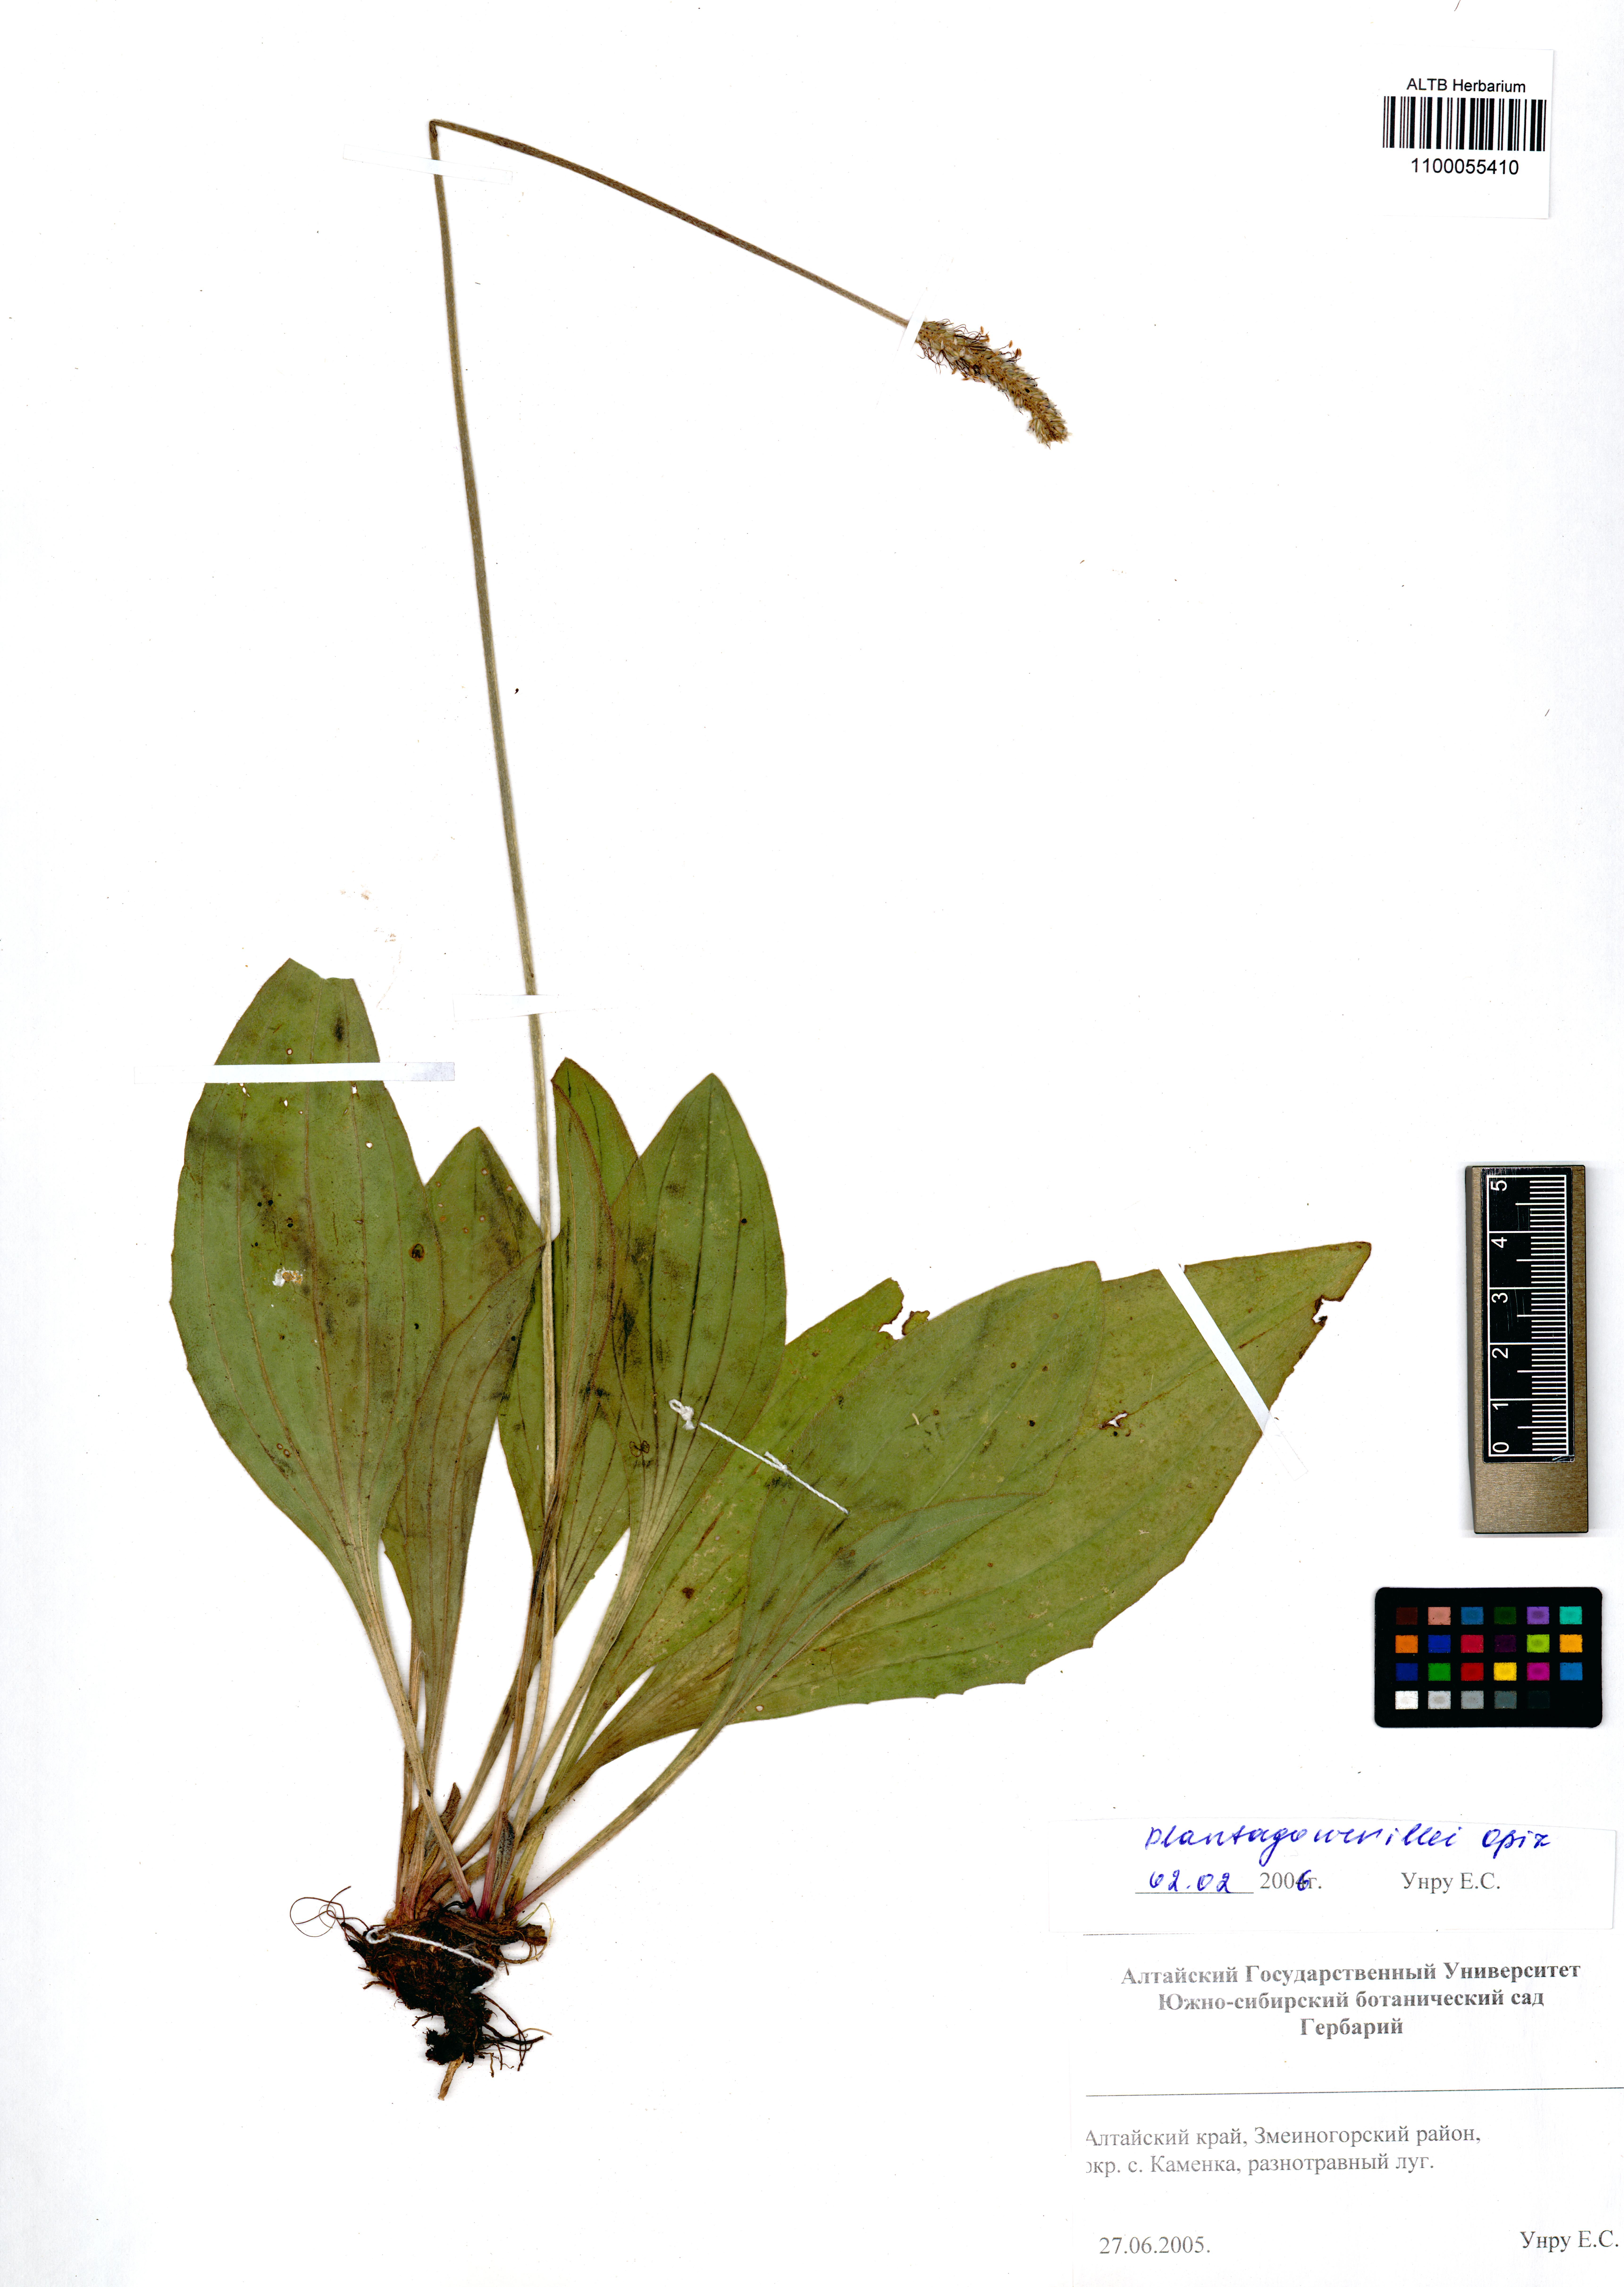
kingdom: Plantae
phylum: Tracheophyta
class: Magnoliopsida
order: Lamiales
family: Plantaginaceae
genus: Plantago
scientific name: Plantago urvillei
